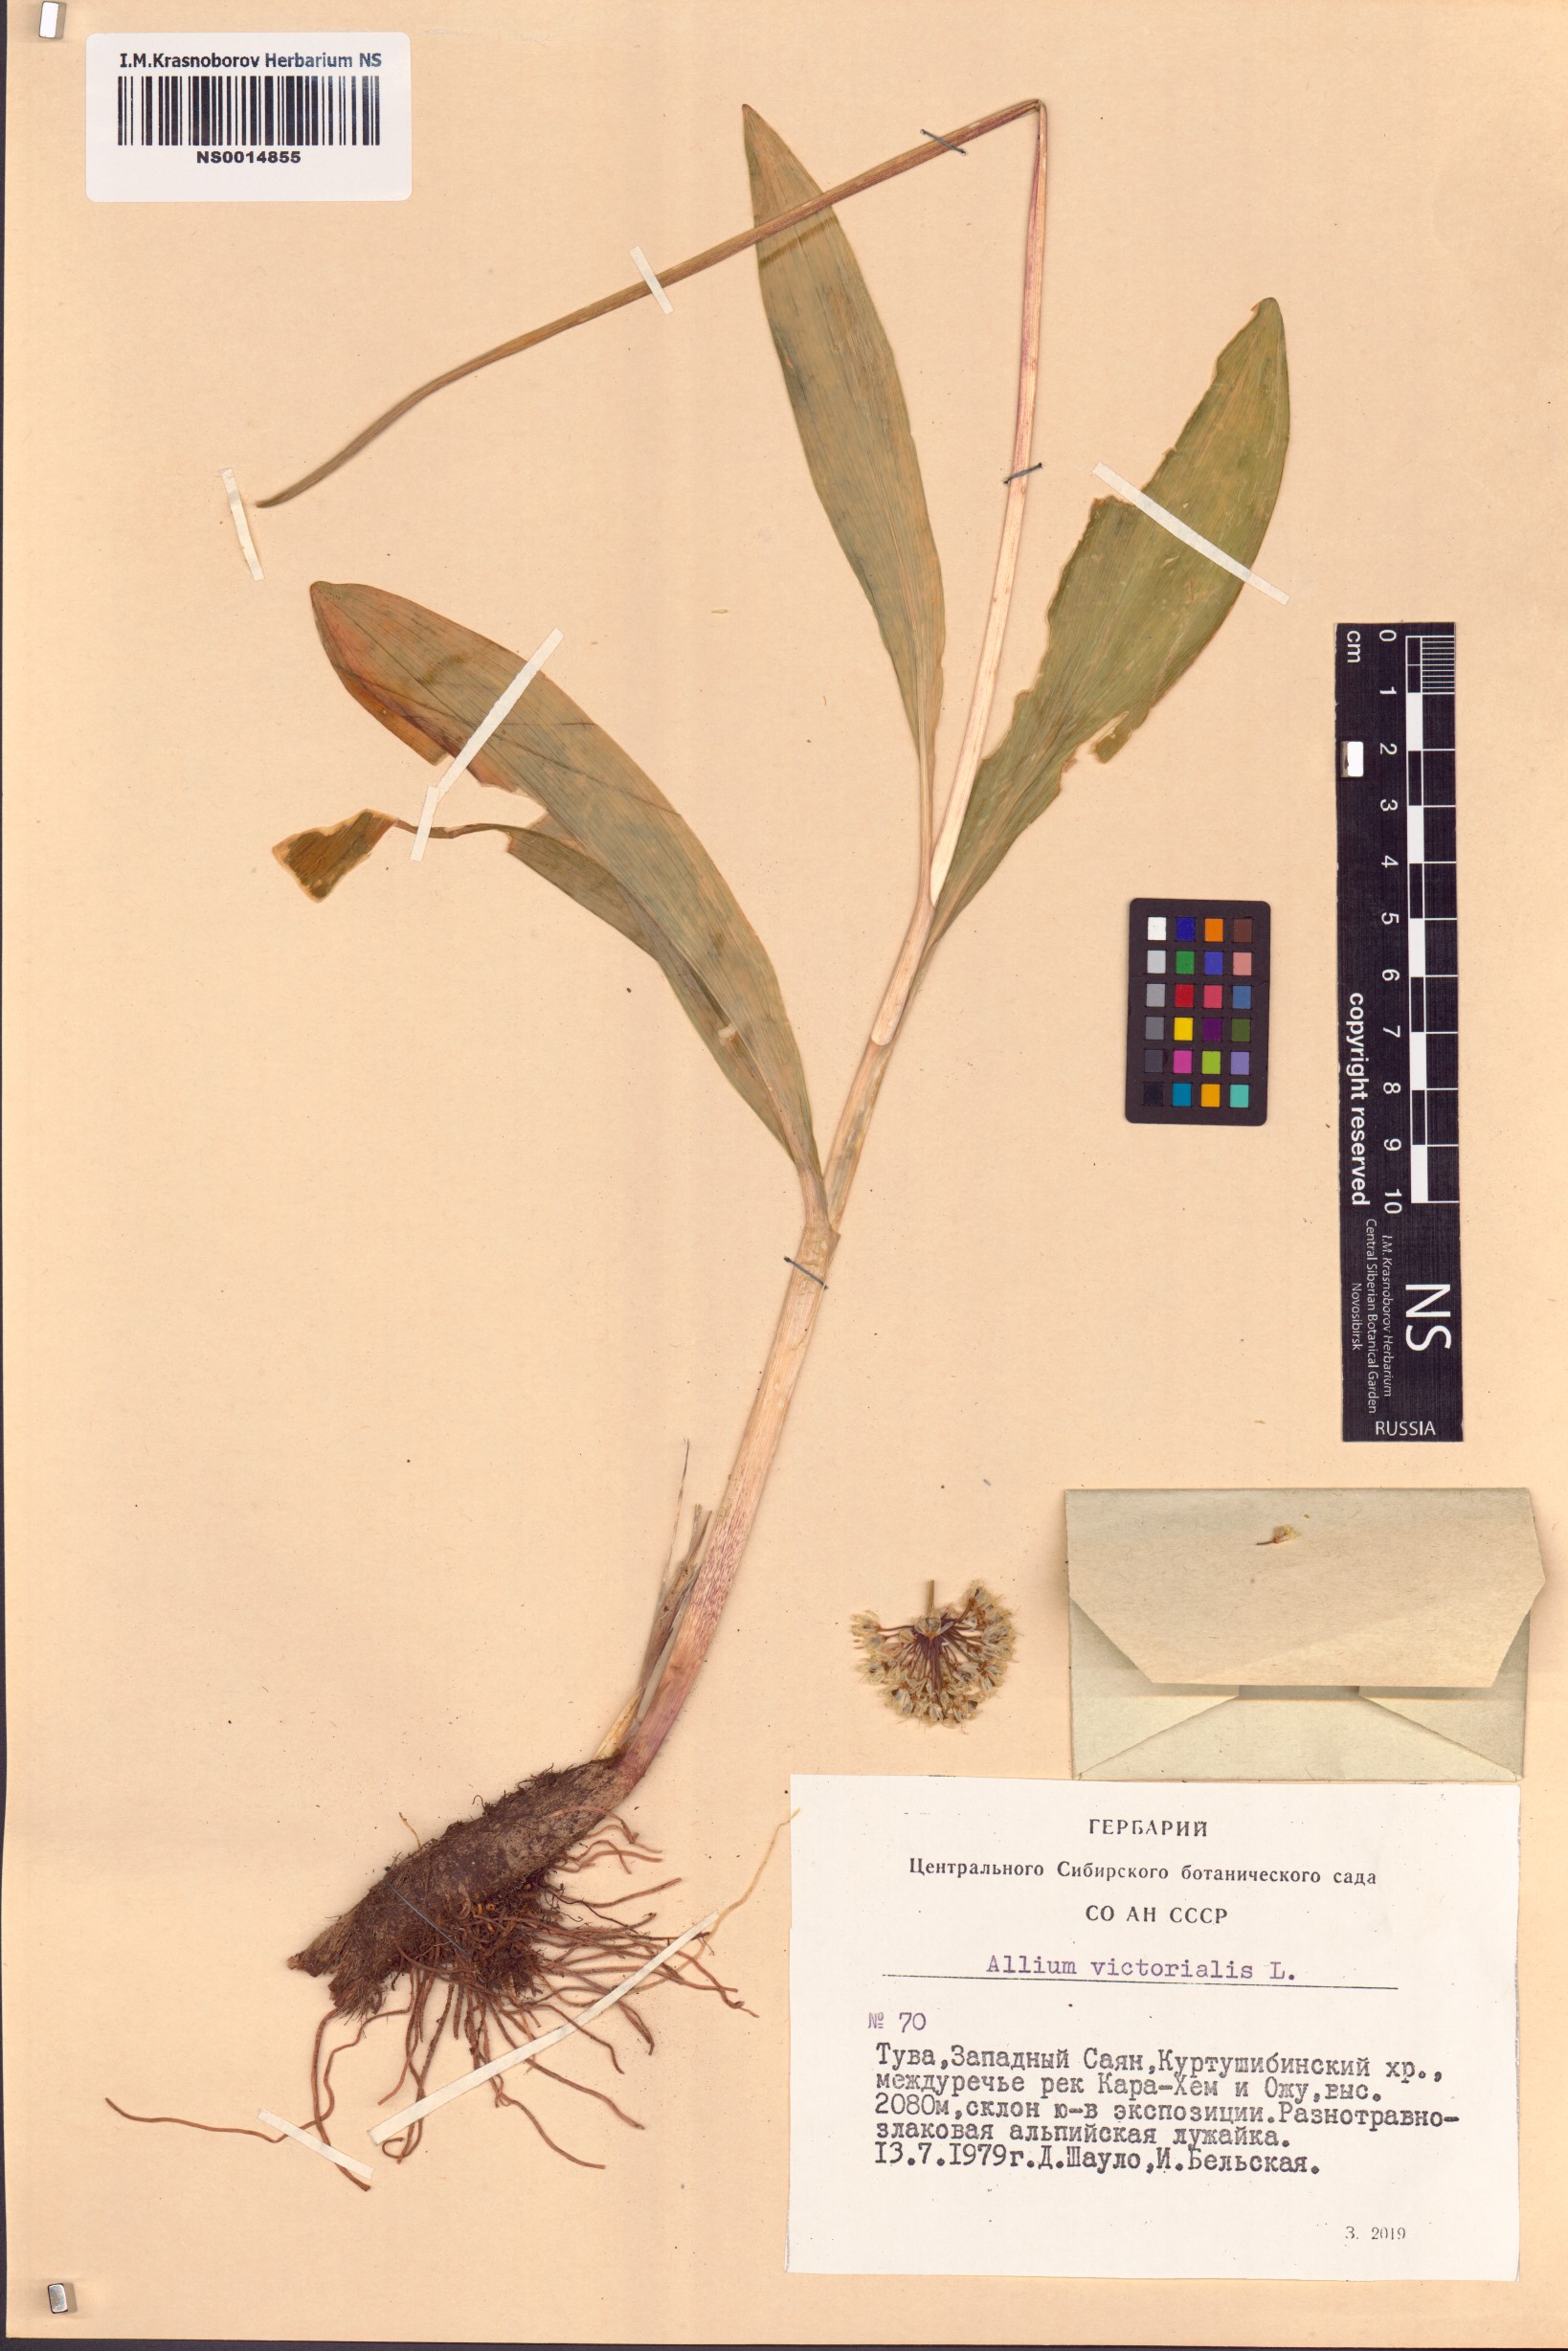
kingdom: Plantae
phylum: Tracheophyta
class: Liliopsida
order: Asparagales
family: Amaryllidaceae
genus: Allium
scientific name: Allium victorialis
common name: Alpine leek
